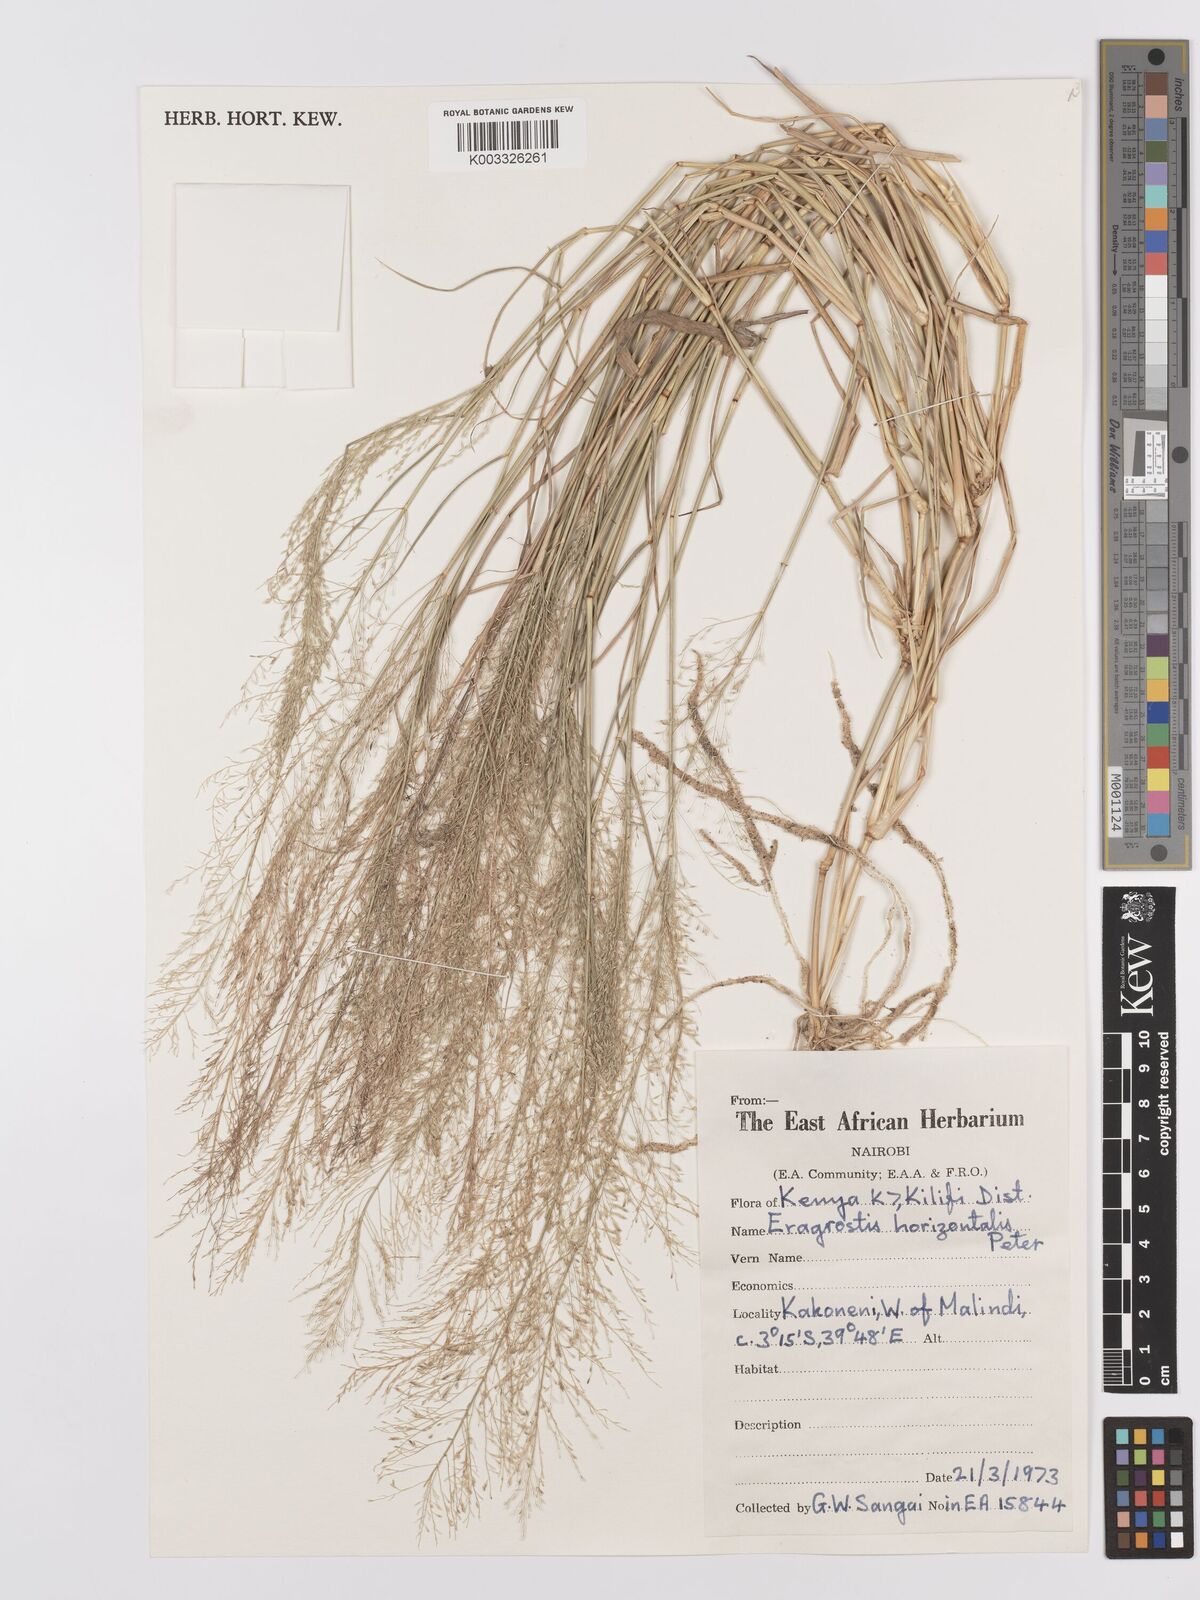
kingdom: Plantae
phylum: Tracheophyta
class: Liliopsida
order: Poales
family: Poaceae
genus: Eragrostis
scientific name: Eragrostis cylindriflora
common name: Cylinderflower lovegrass
